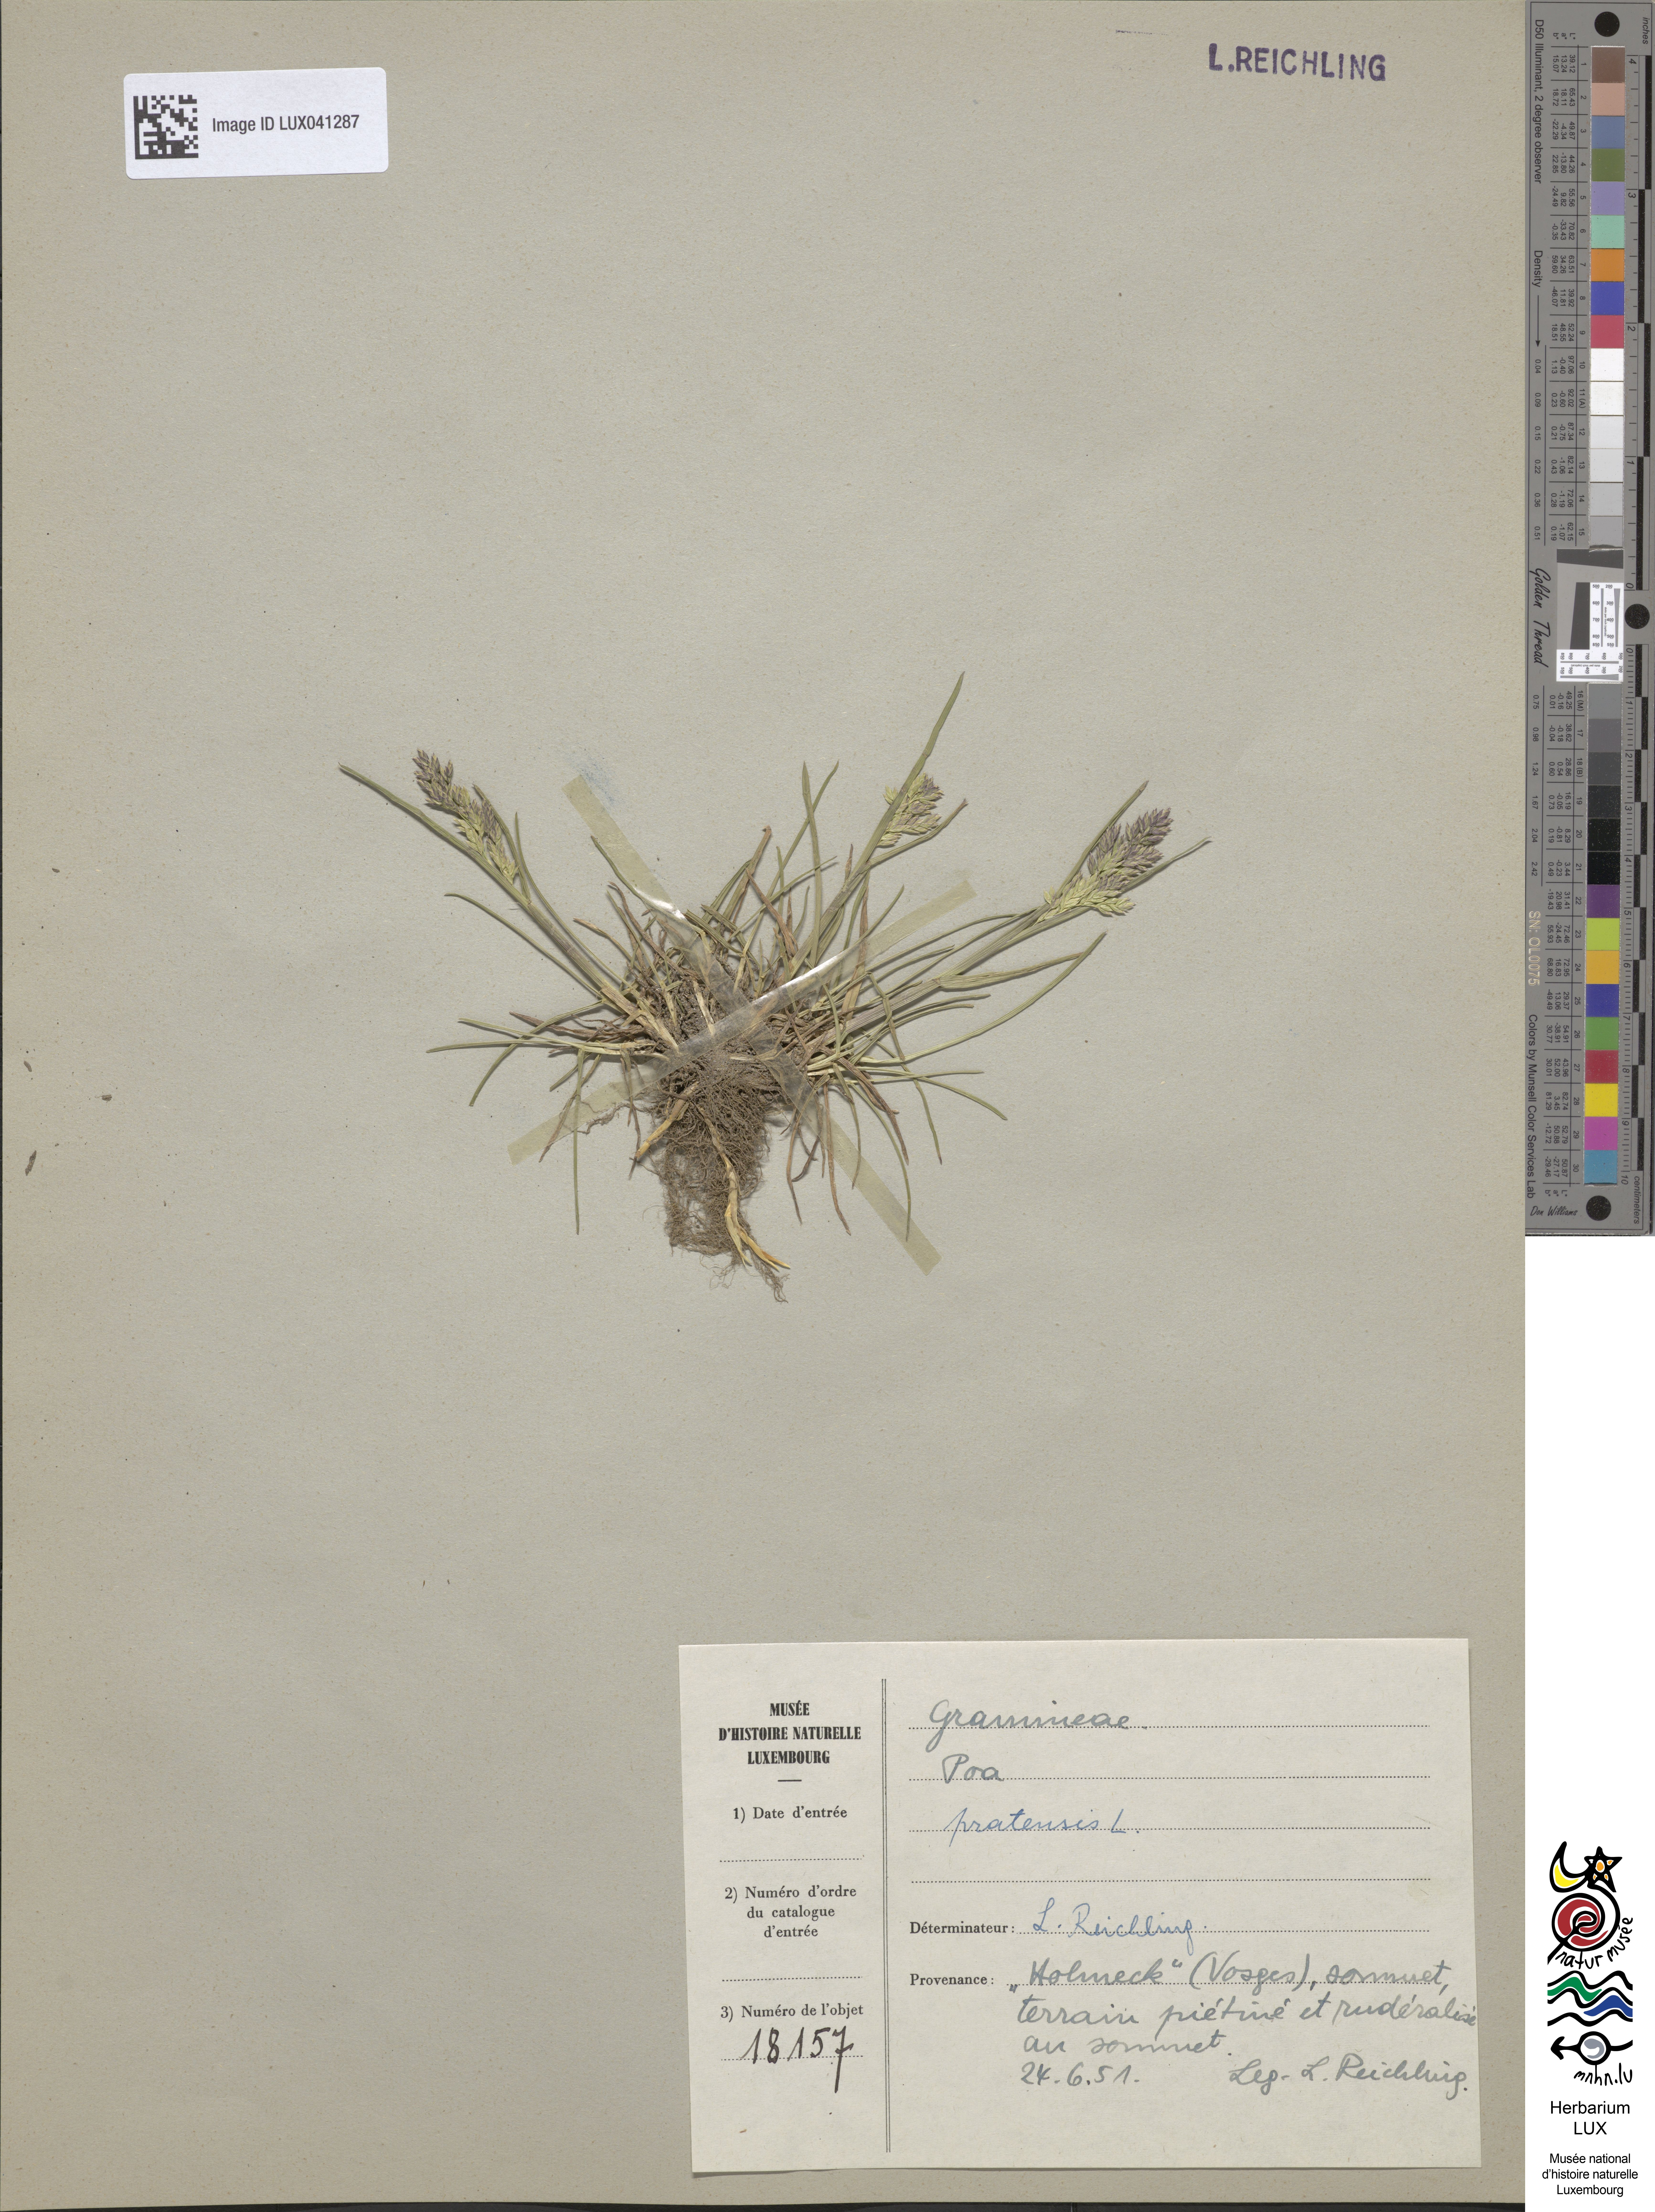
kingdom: Plantae
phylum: Tracheophyta
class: Liliopsida
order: Poales
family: Poaceae
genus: Poa
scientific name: Poa pratensis
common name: Kentucky bluegrass
